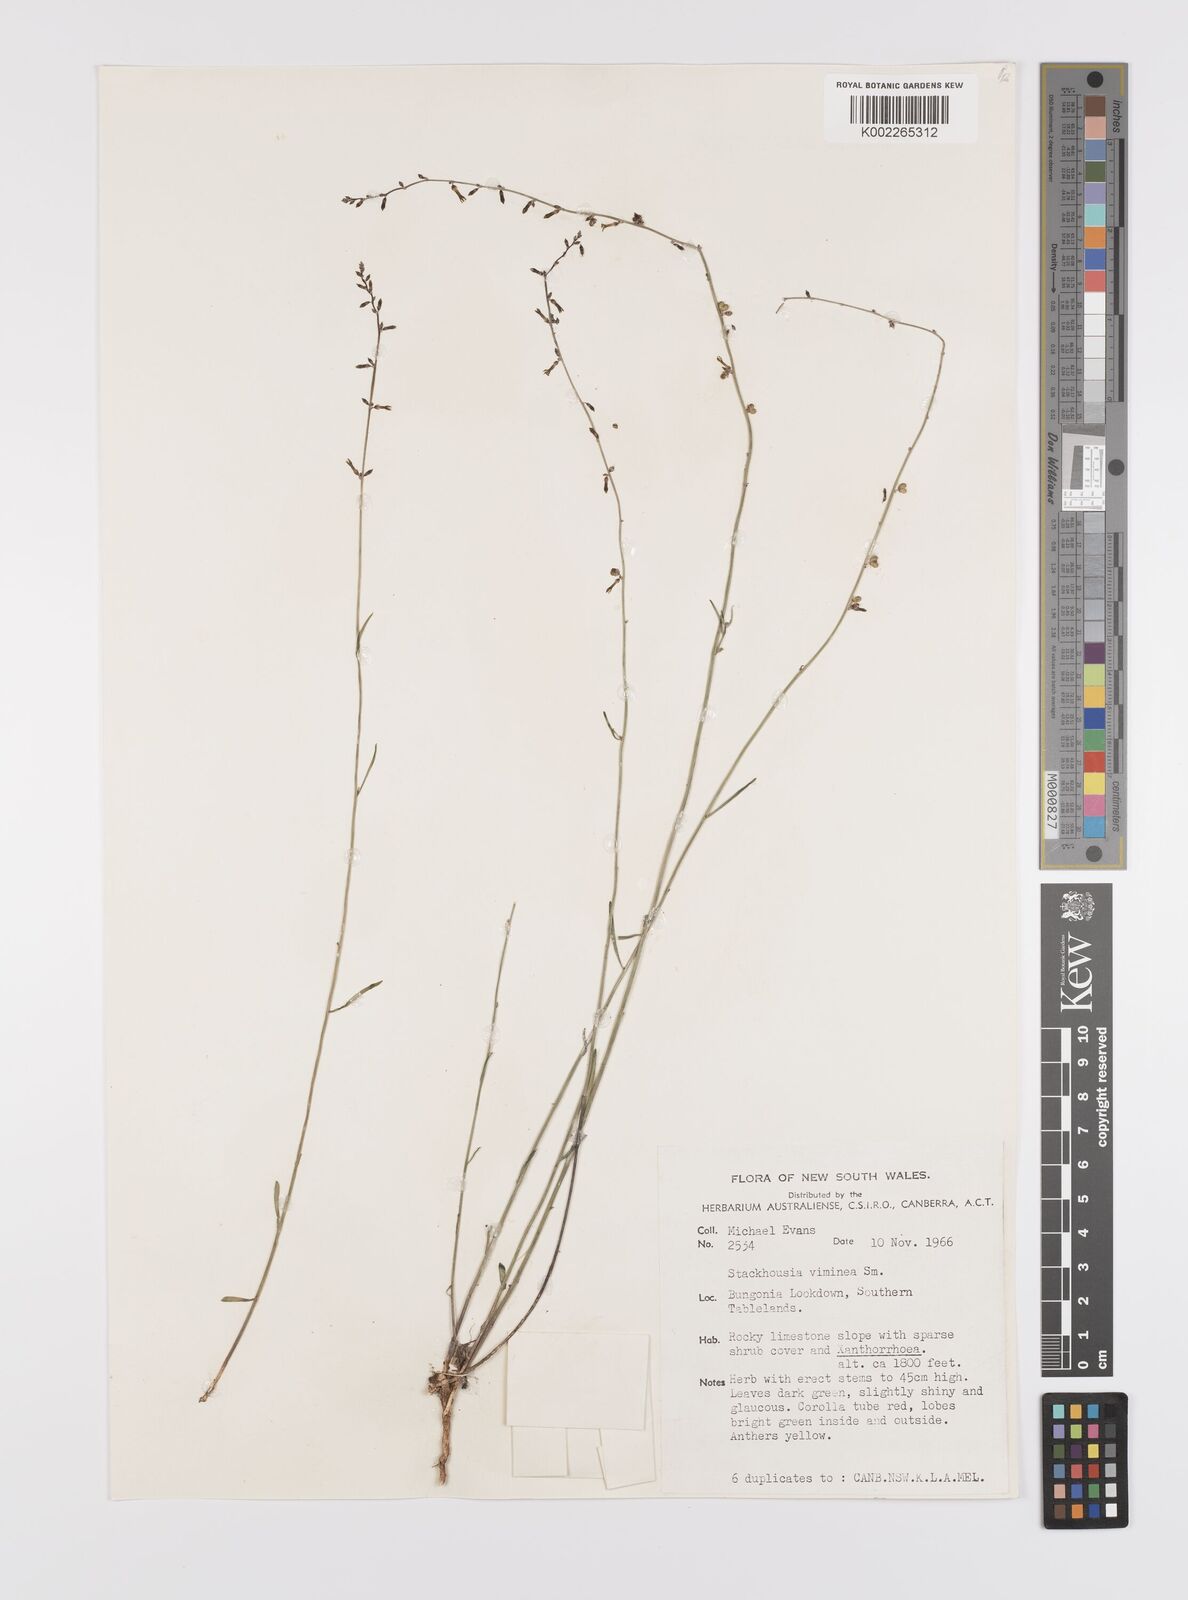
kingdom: Plantae
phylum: Tracheophyta
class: Magnoliopsida
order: Celastrales
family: Celastraceae
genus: Stackhousia
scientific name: Stackhousia viminea
